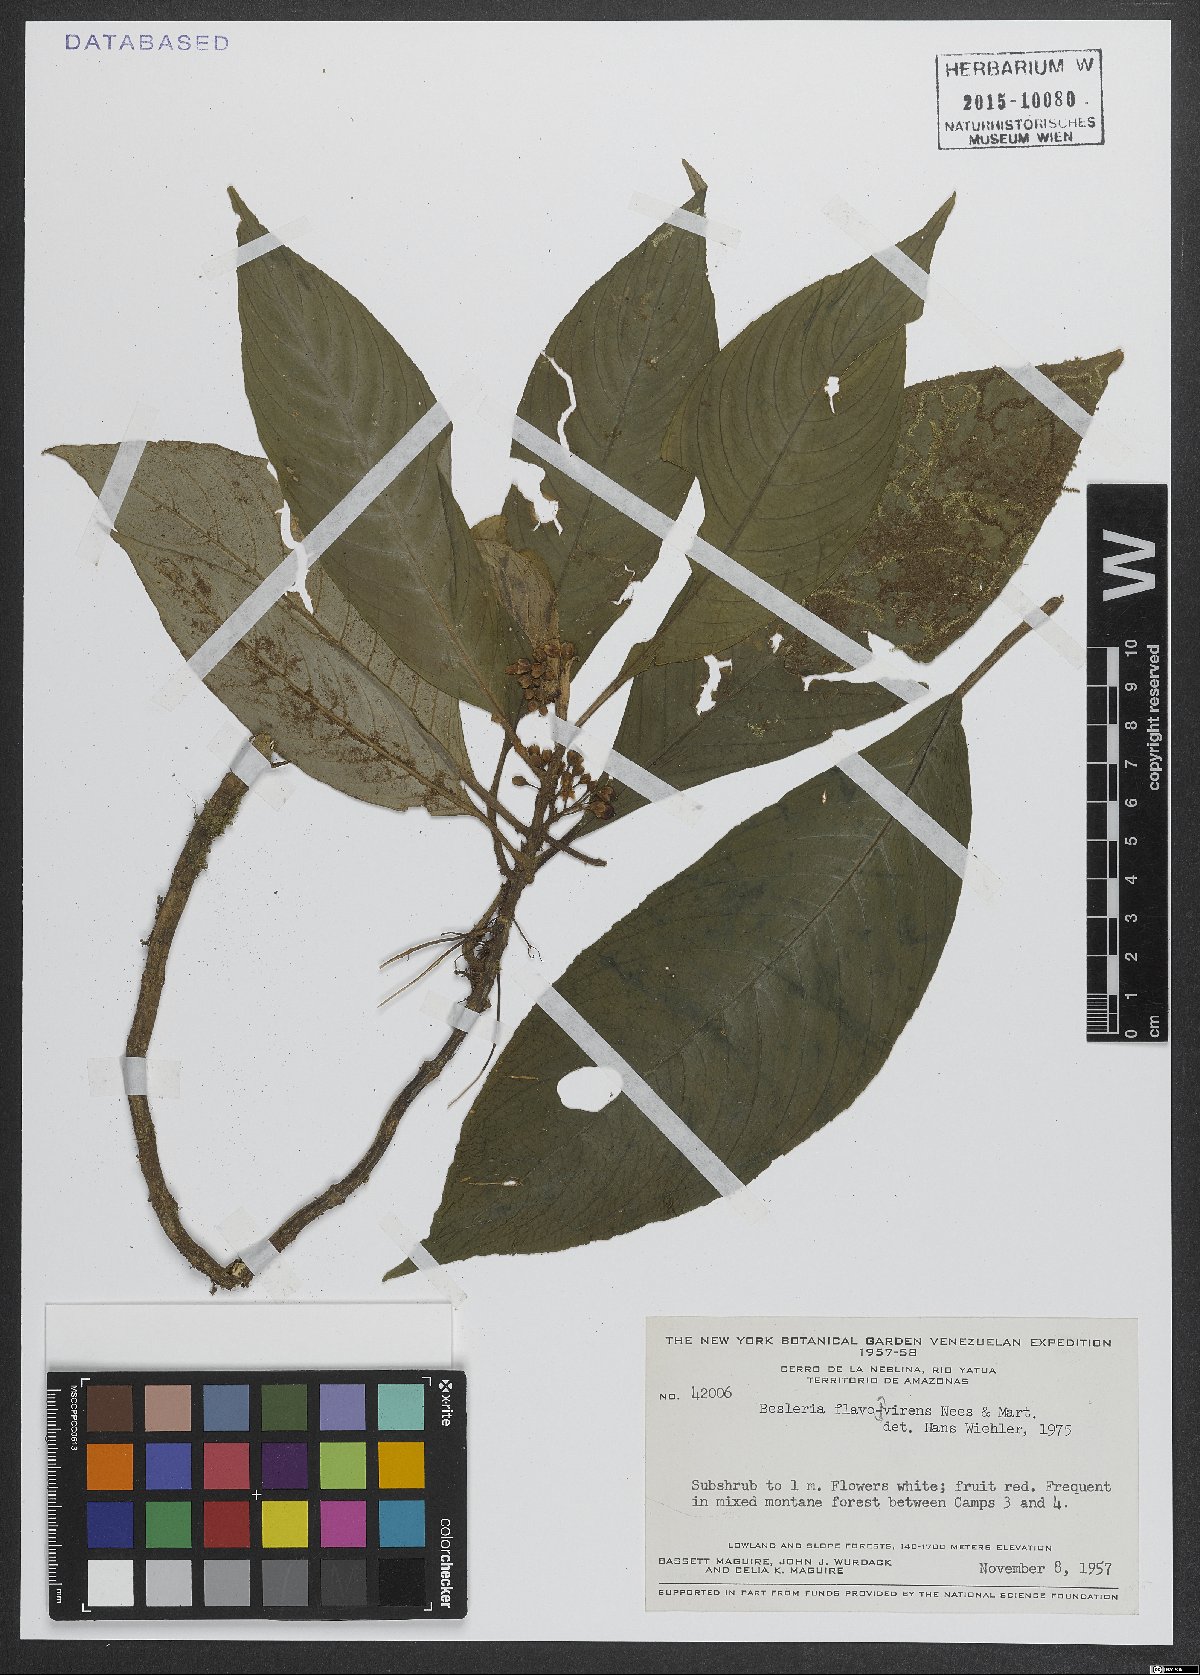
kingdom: Plantae
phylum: Tracheophyta
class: Magnoliopsida
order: Lamiales
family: Gesneriaceae
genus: Besleria
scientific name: Besleria flavovirens
